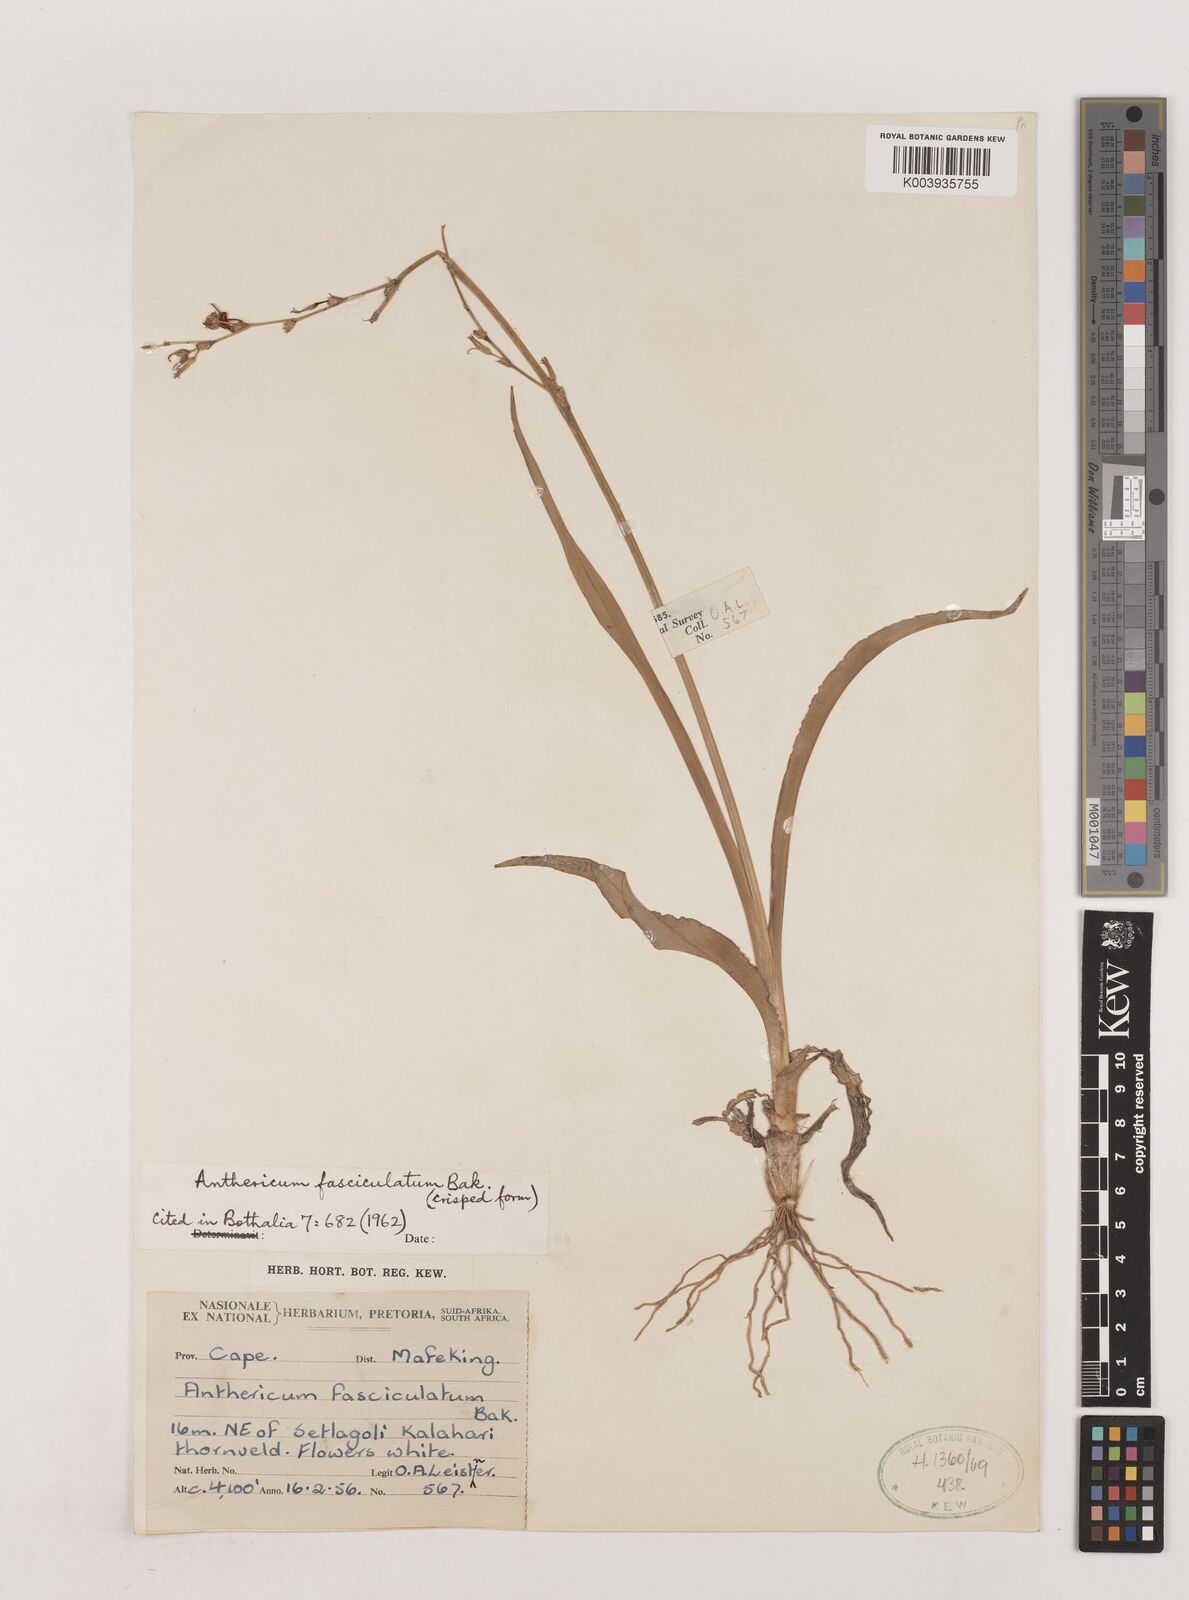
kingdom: Plantae
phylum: Tracheophyta
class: Liliopsida
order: Asparagales
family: Asparagaceae
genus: Chlorophytum
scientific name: Chlorophytum fasciculatum
